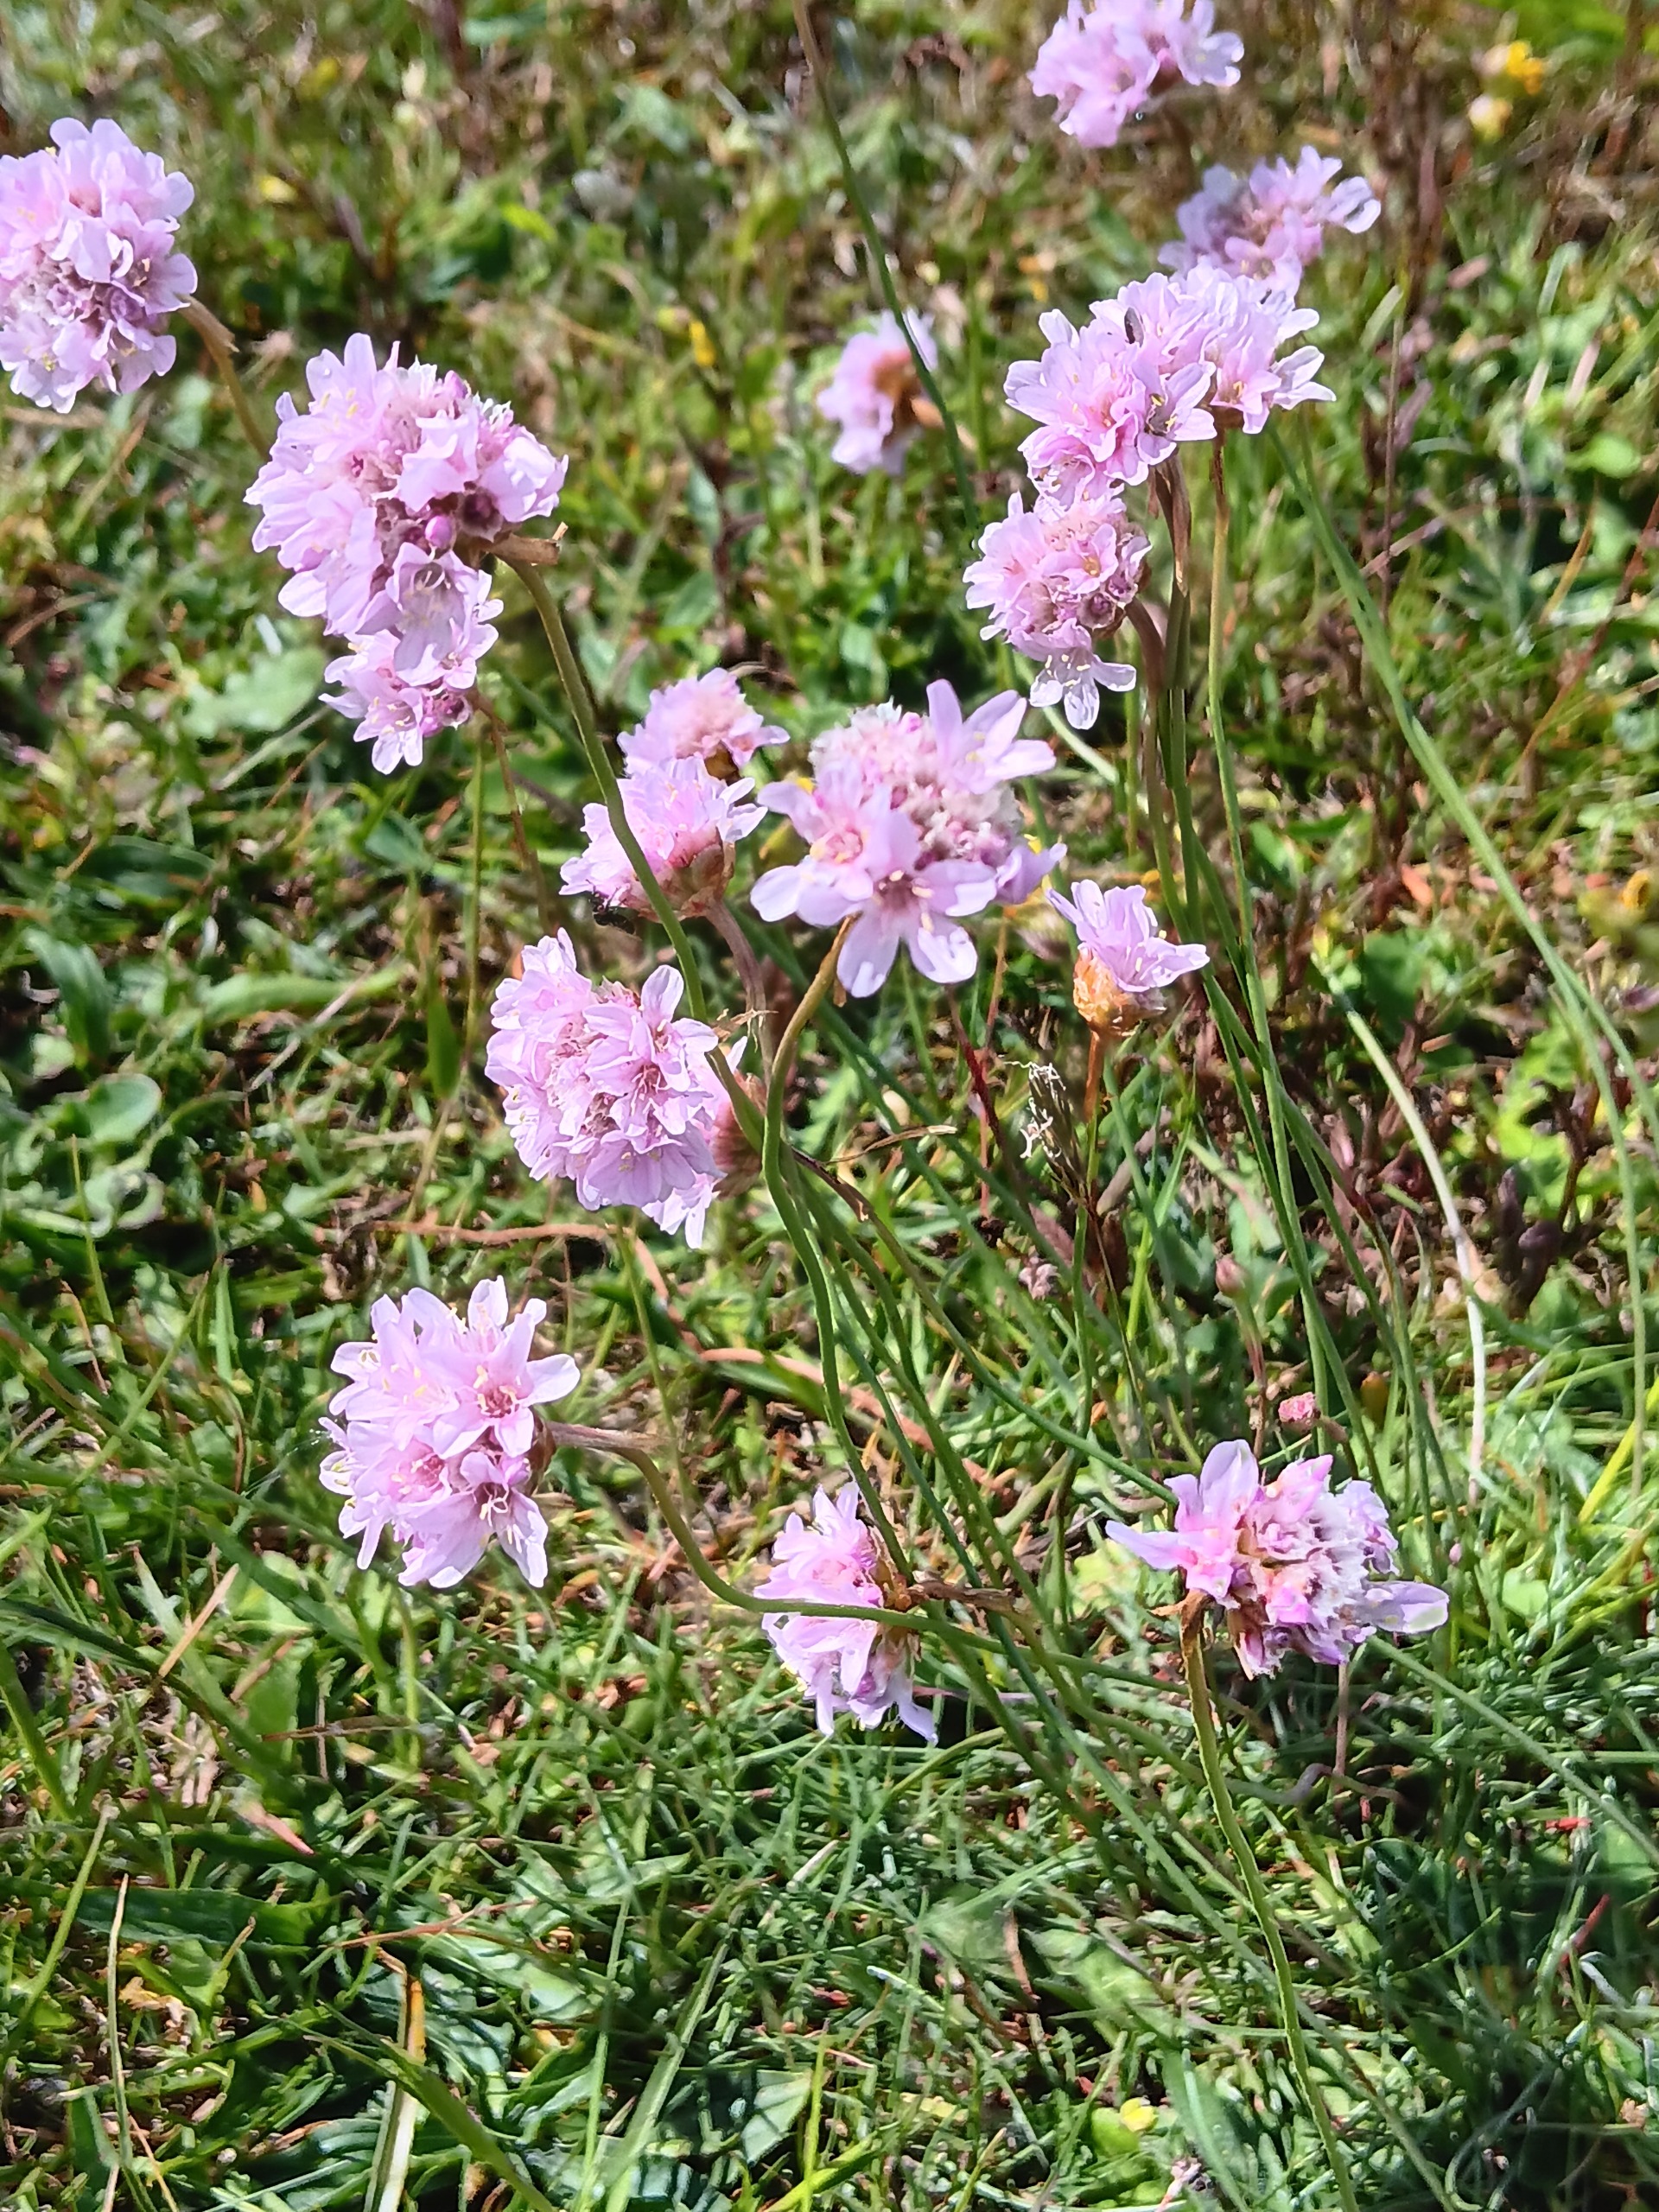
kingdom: Plantae
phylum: Tracheophyta
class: Magnoliopsida
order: Caryophyllales
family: Plumbaginaceae
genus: Armeria
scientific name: Armeria maritima
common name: Vej-engelskgræs
